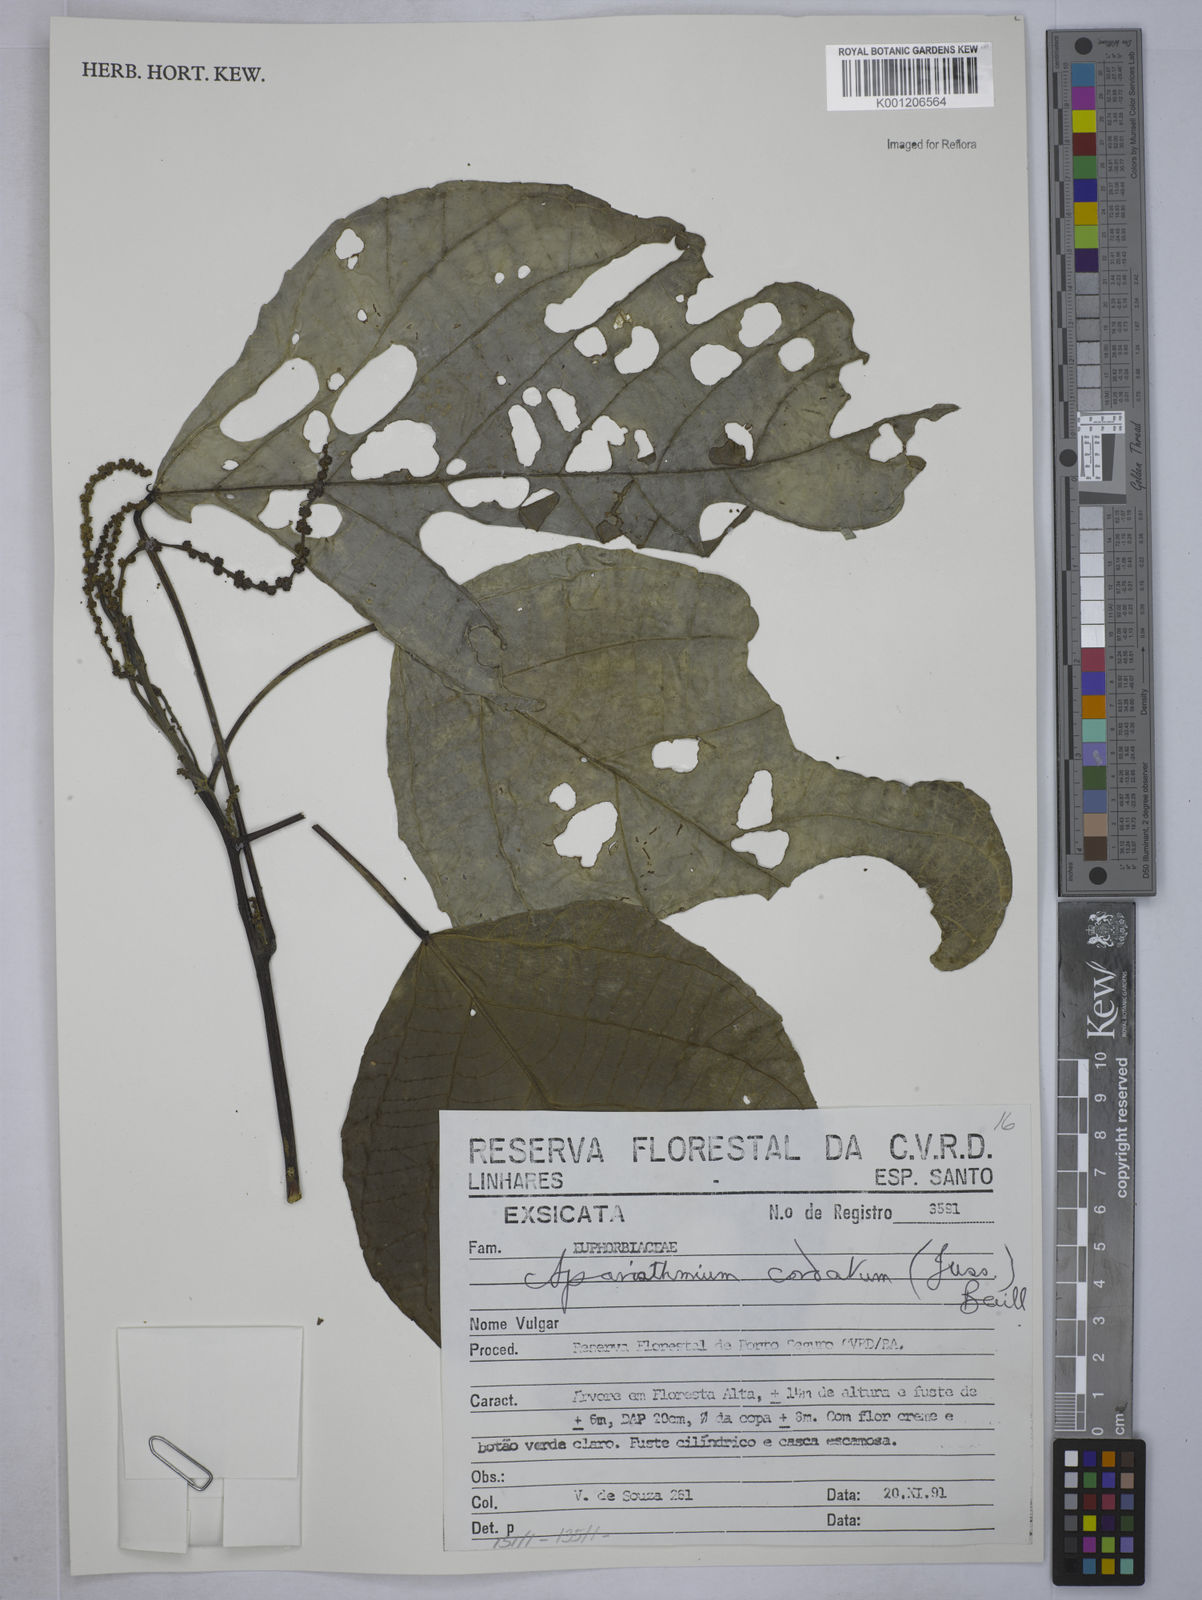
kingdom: Plantae
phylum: Tracheophyta
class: Magnoliopsida
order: Malpighiales
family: Euphorbiaceae
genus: Aparisthmium
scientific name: Aparisthmium cordatum
